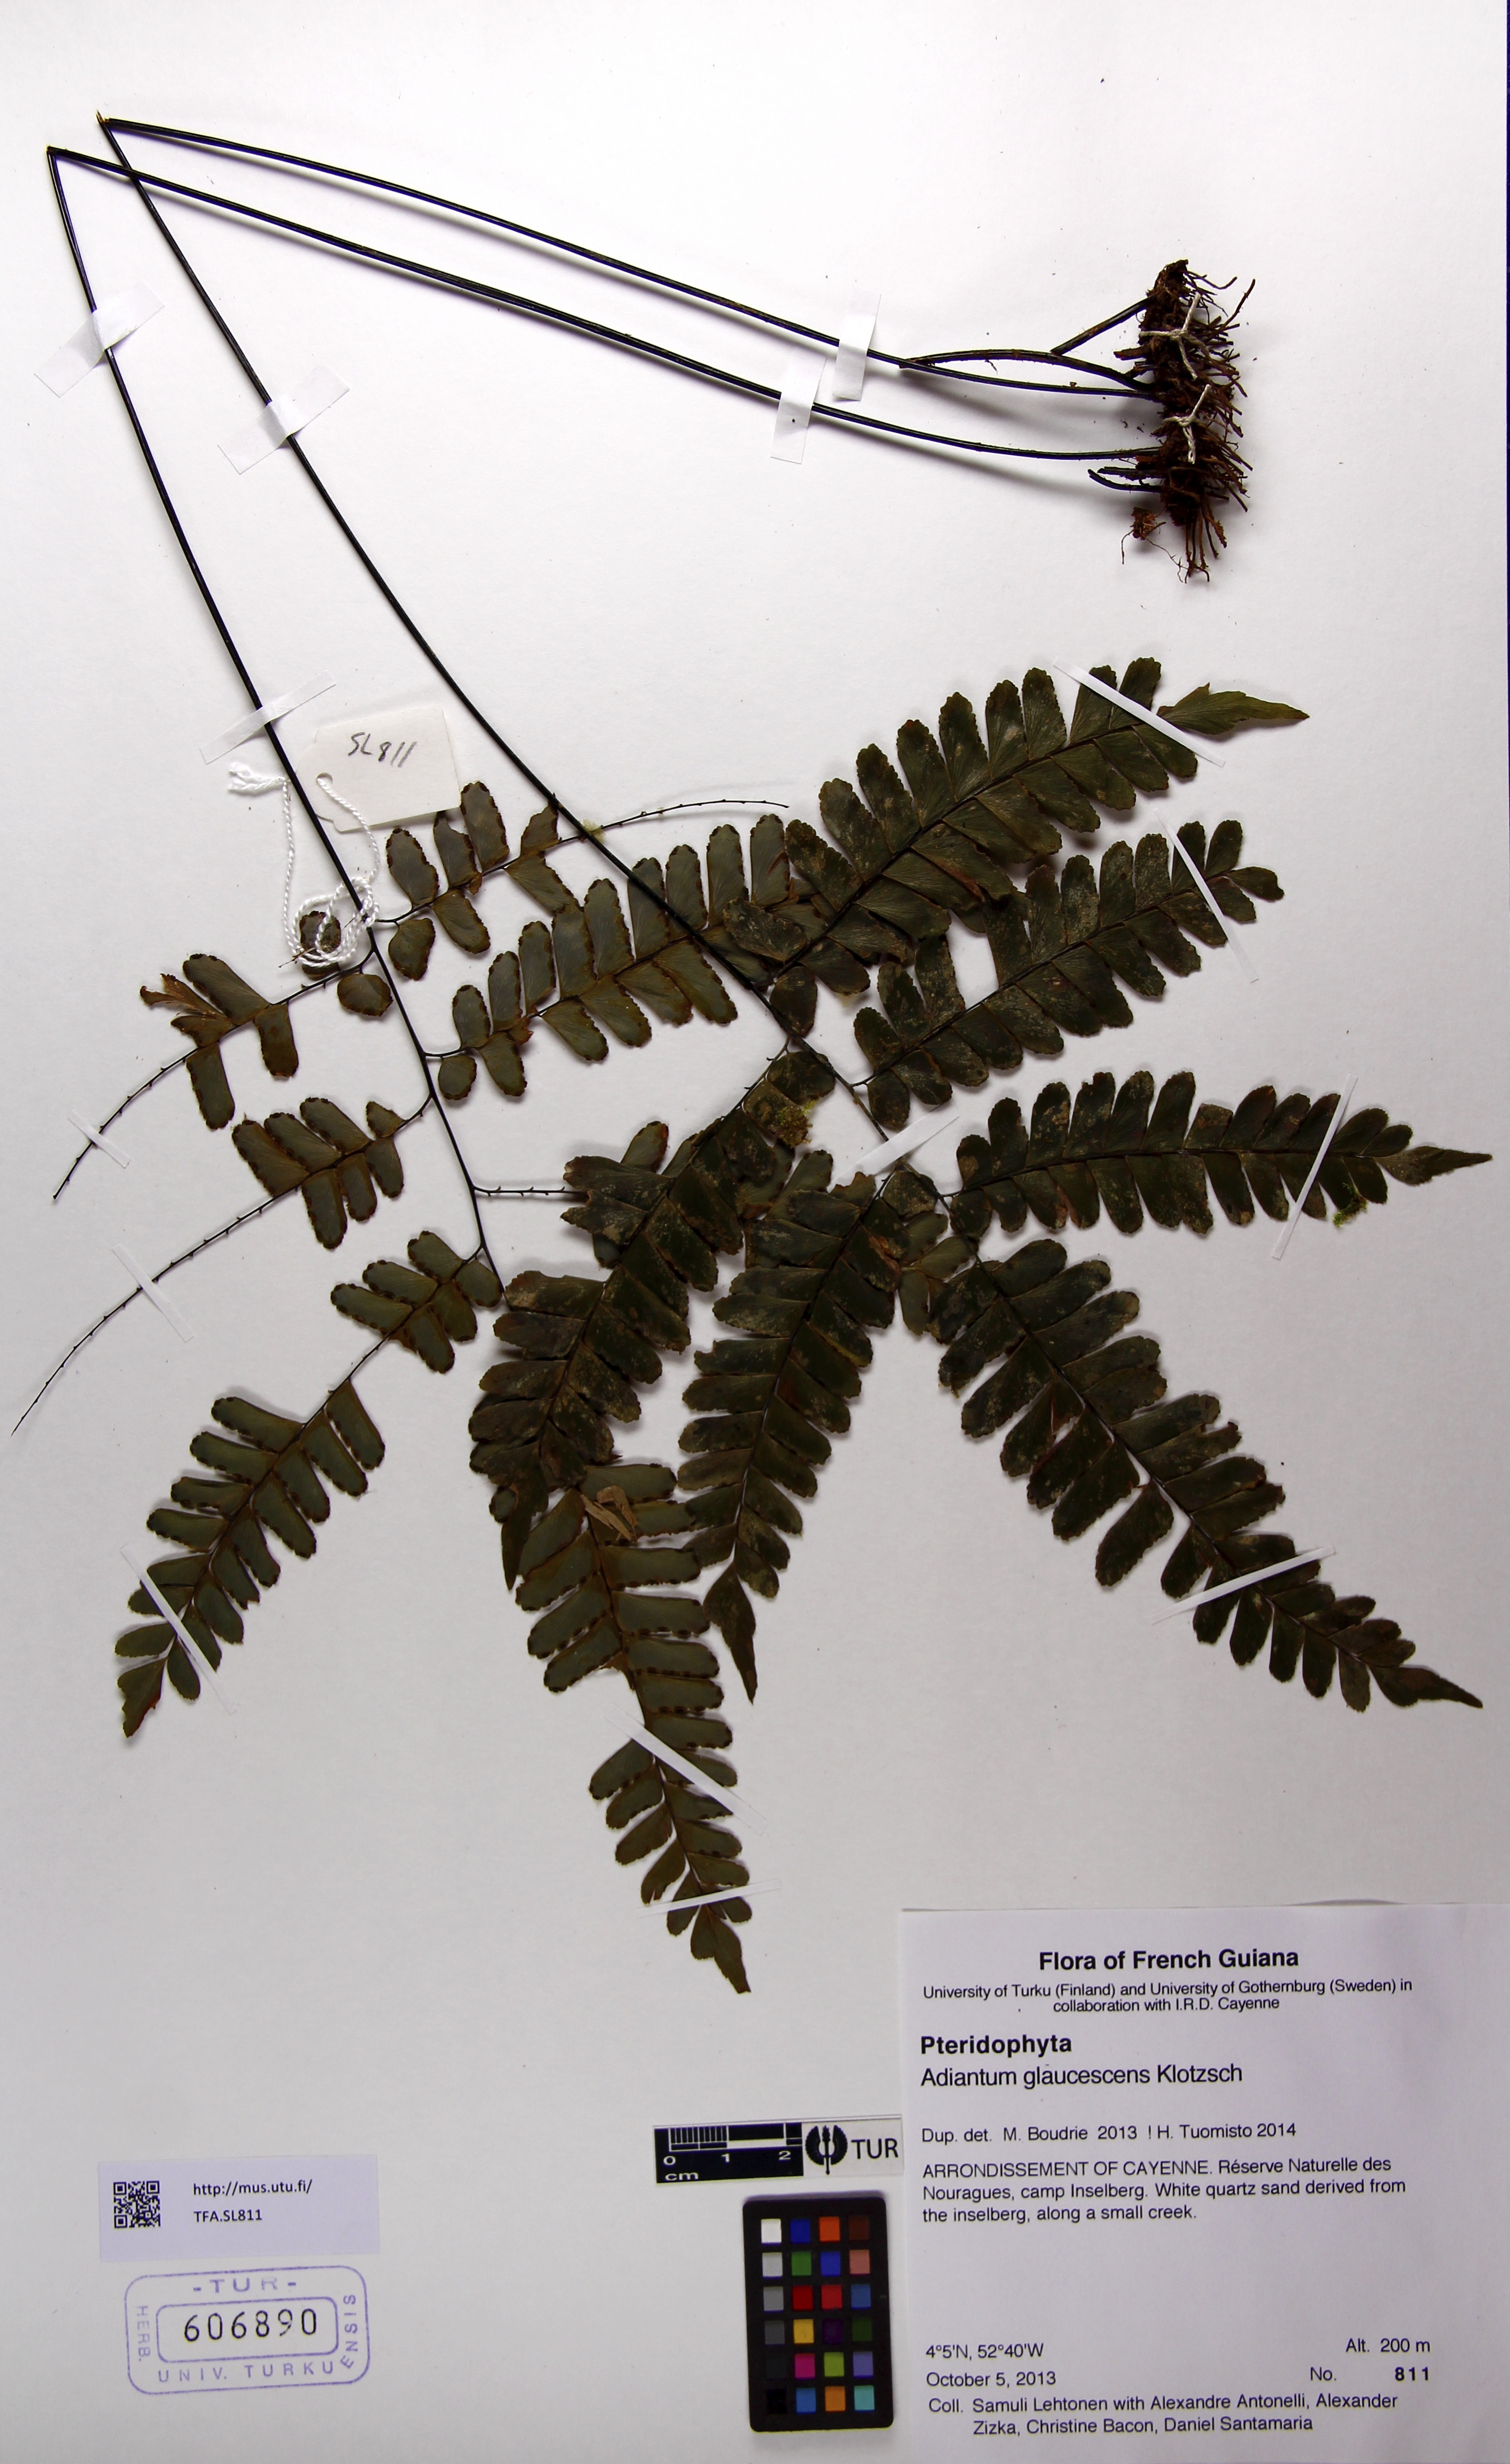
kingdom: Plantae
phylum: Tracheophyta
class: Polypodiopsida
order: Polypodiales
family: Pteridaceae
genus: Adiantum
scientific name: Adiantum glaucescens
